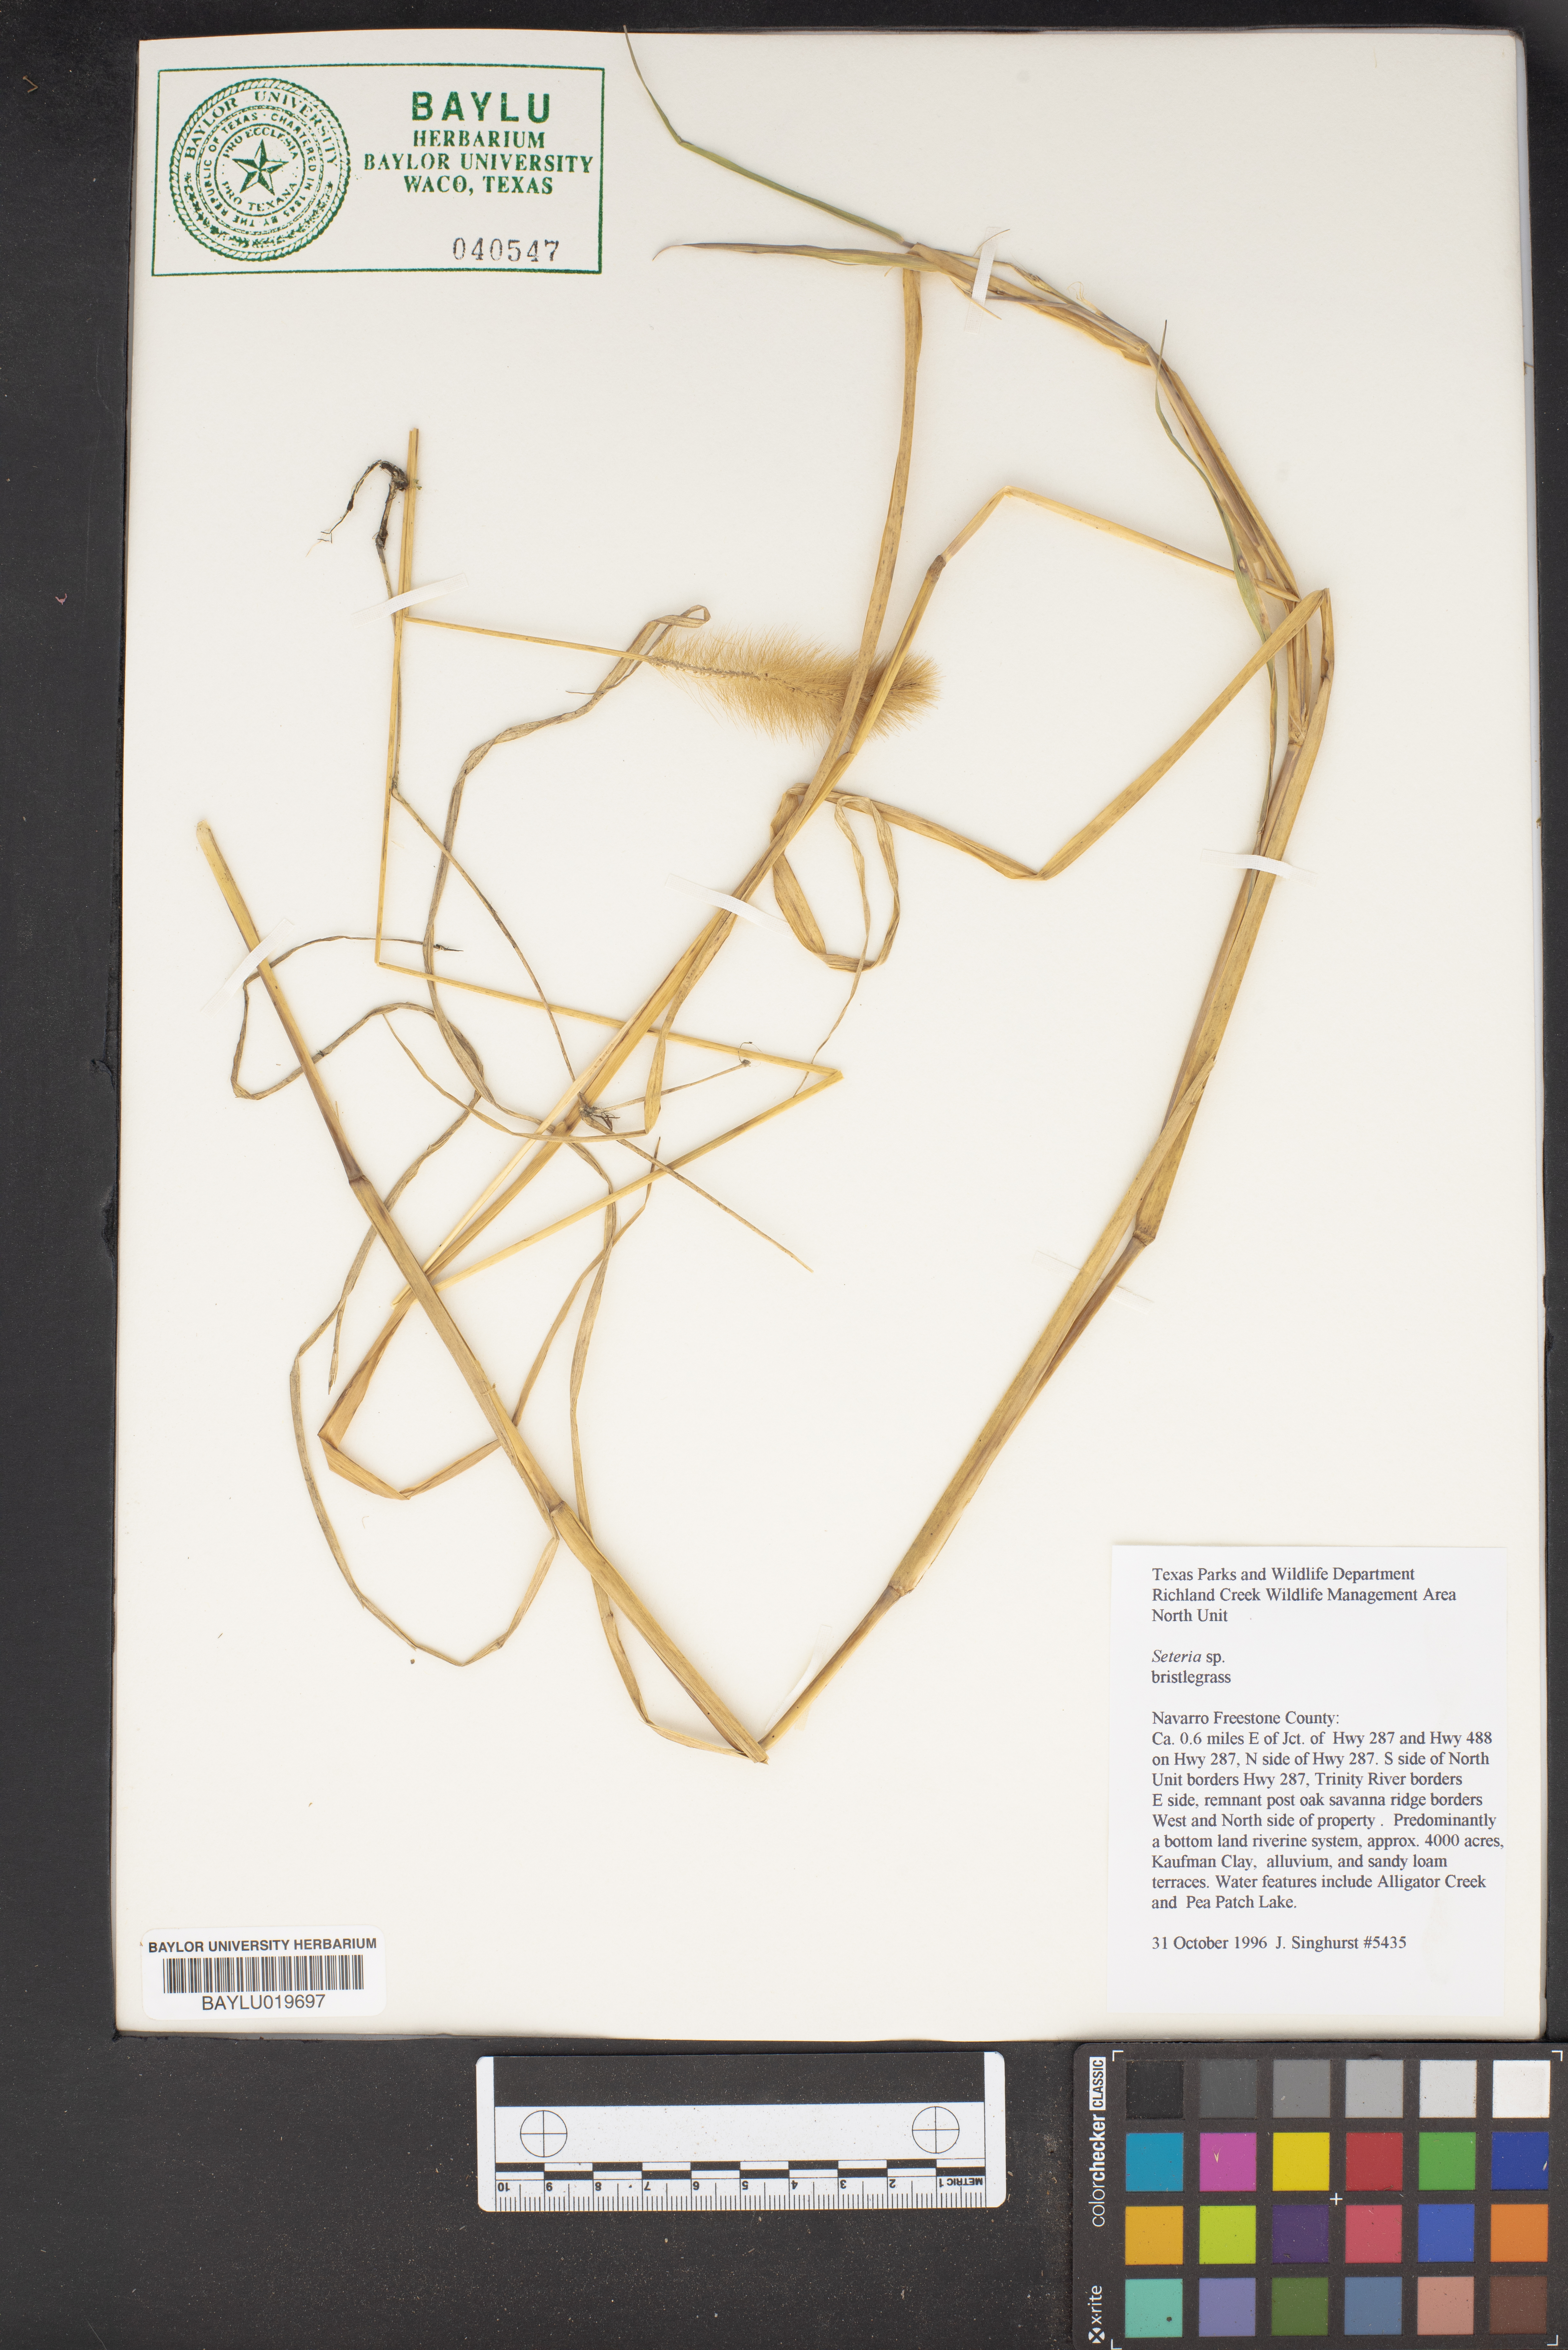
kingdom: Plantae
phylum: Tracheophyta
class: Liliopsida
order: Poales
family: Poaceae
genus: Setaria
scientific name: Setaria
